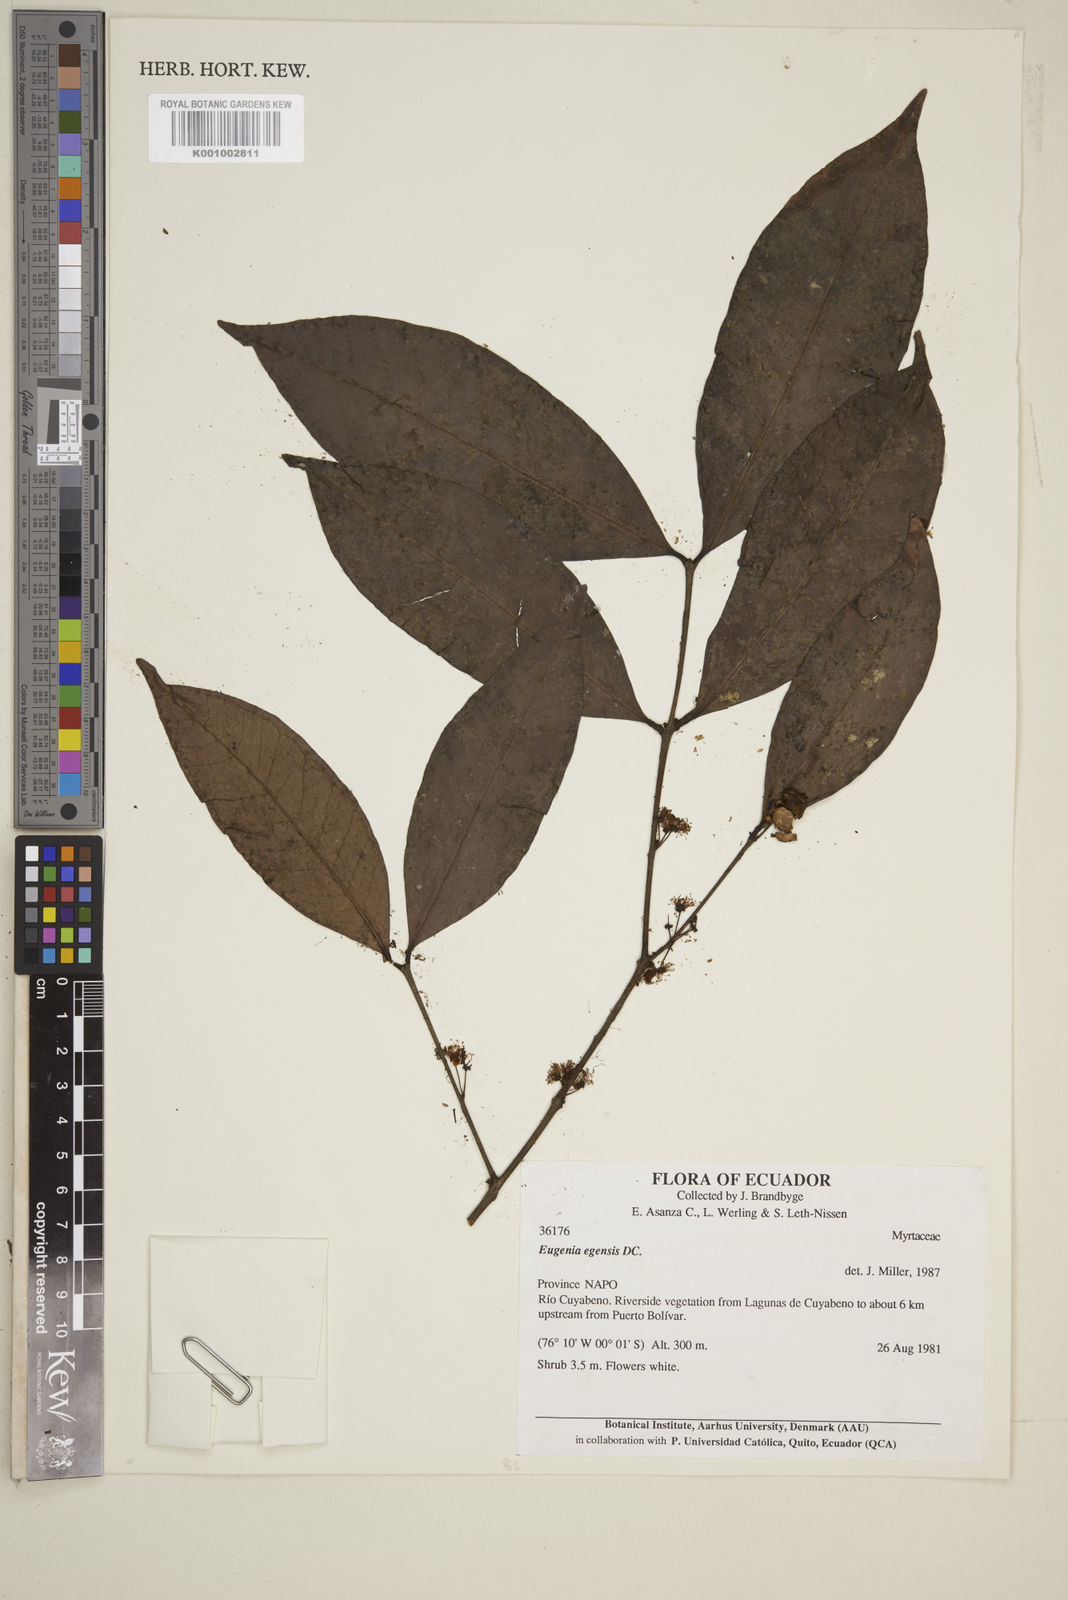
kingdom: Plantae
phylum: Tracheophyta
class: Magnoliopsida
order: Myrtales
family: Myrtaceae
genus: Eugenia
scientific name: Eugenia egensis
